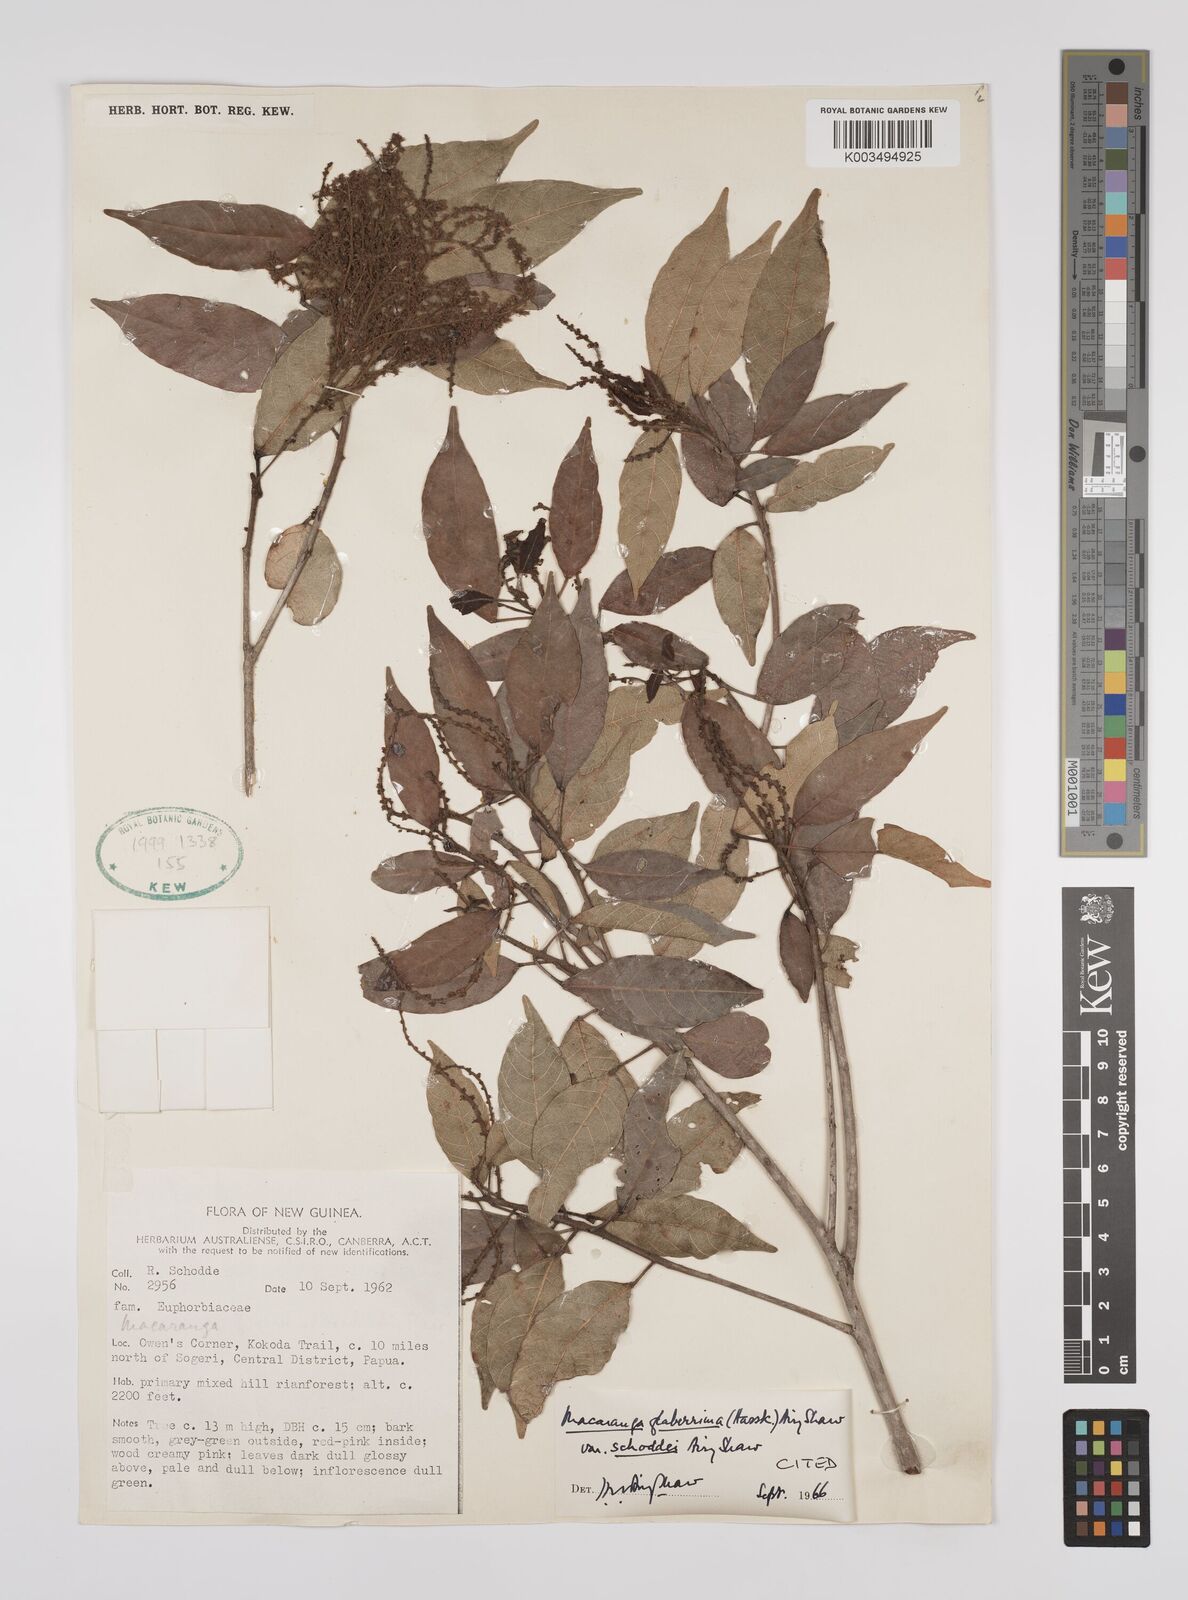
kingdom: Plantae
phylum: Tracheophyta
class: Magnoliopsida
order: Malpighiales
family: Euphorbiaceae
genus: Macaranga
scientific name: Macaranga glaberrima
